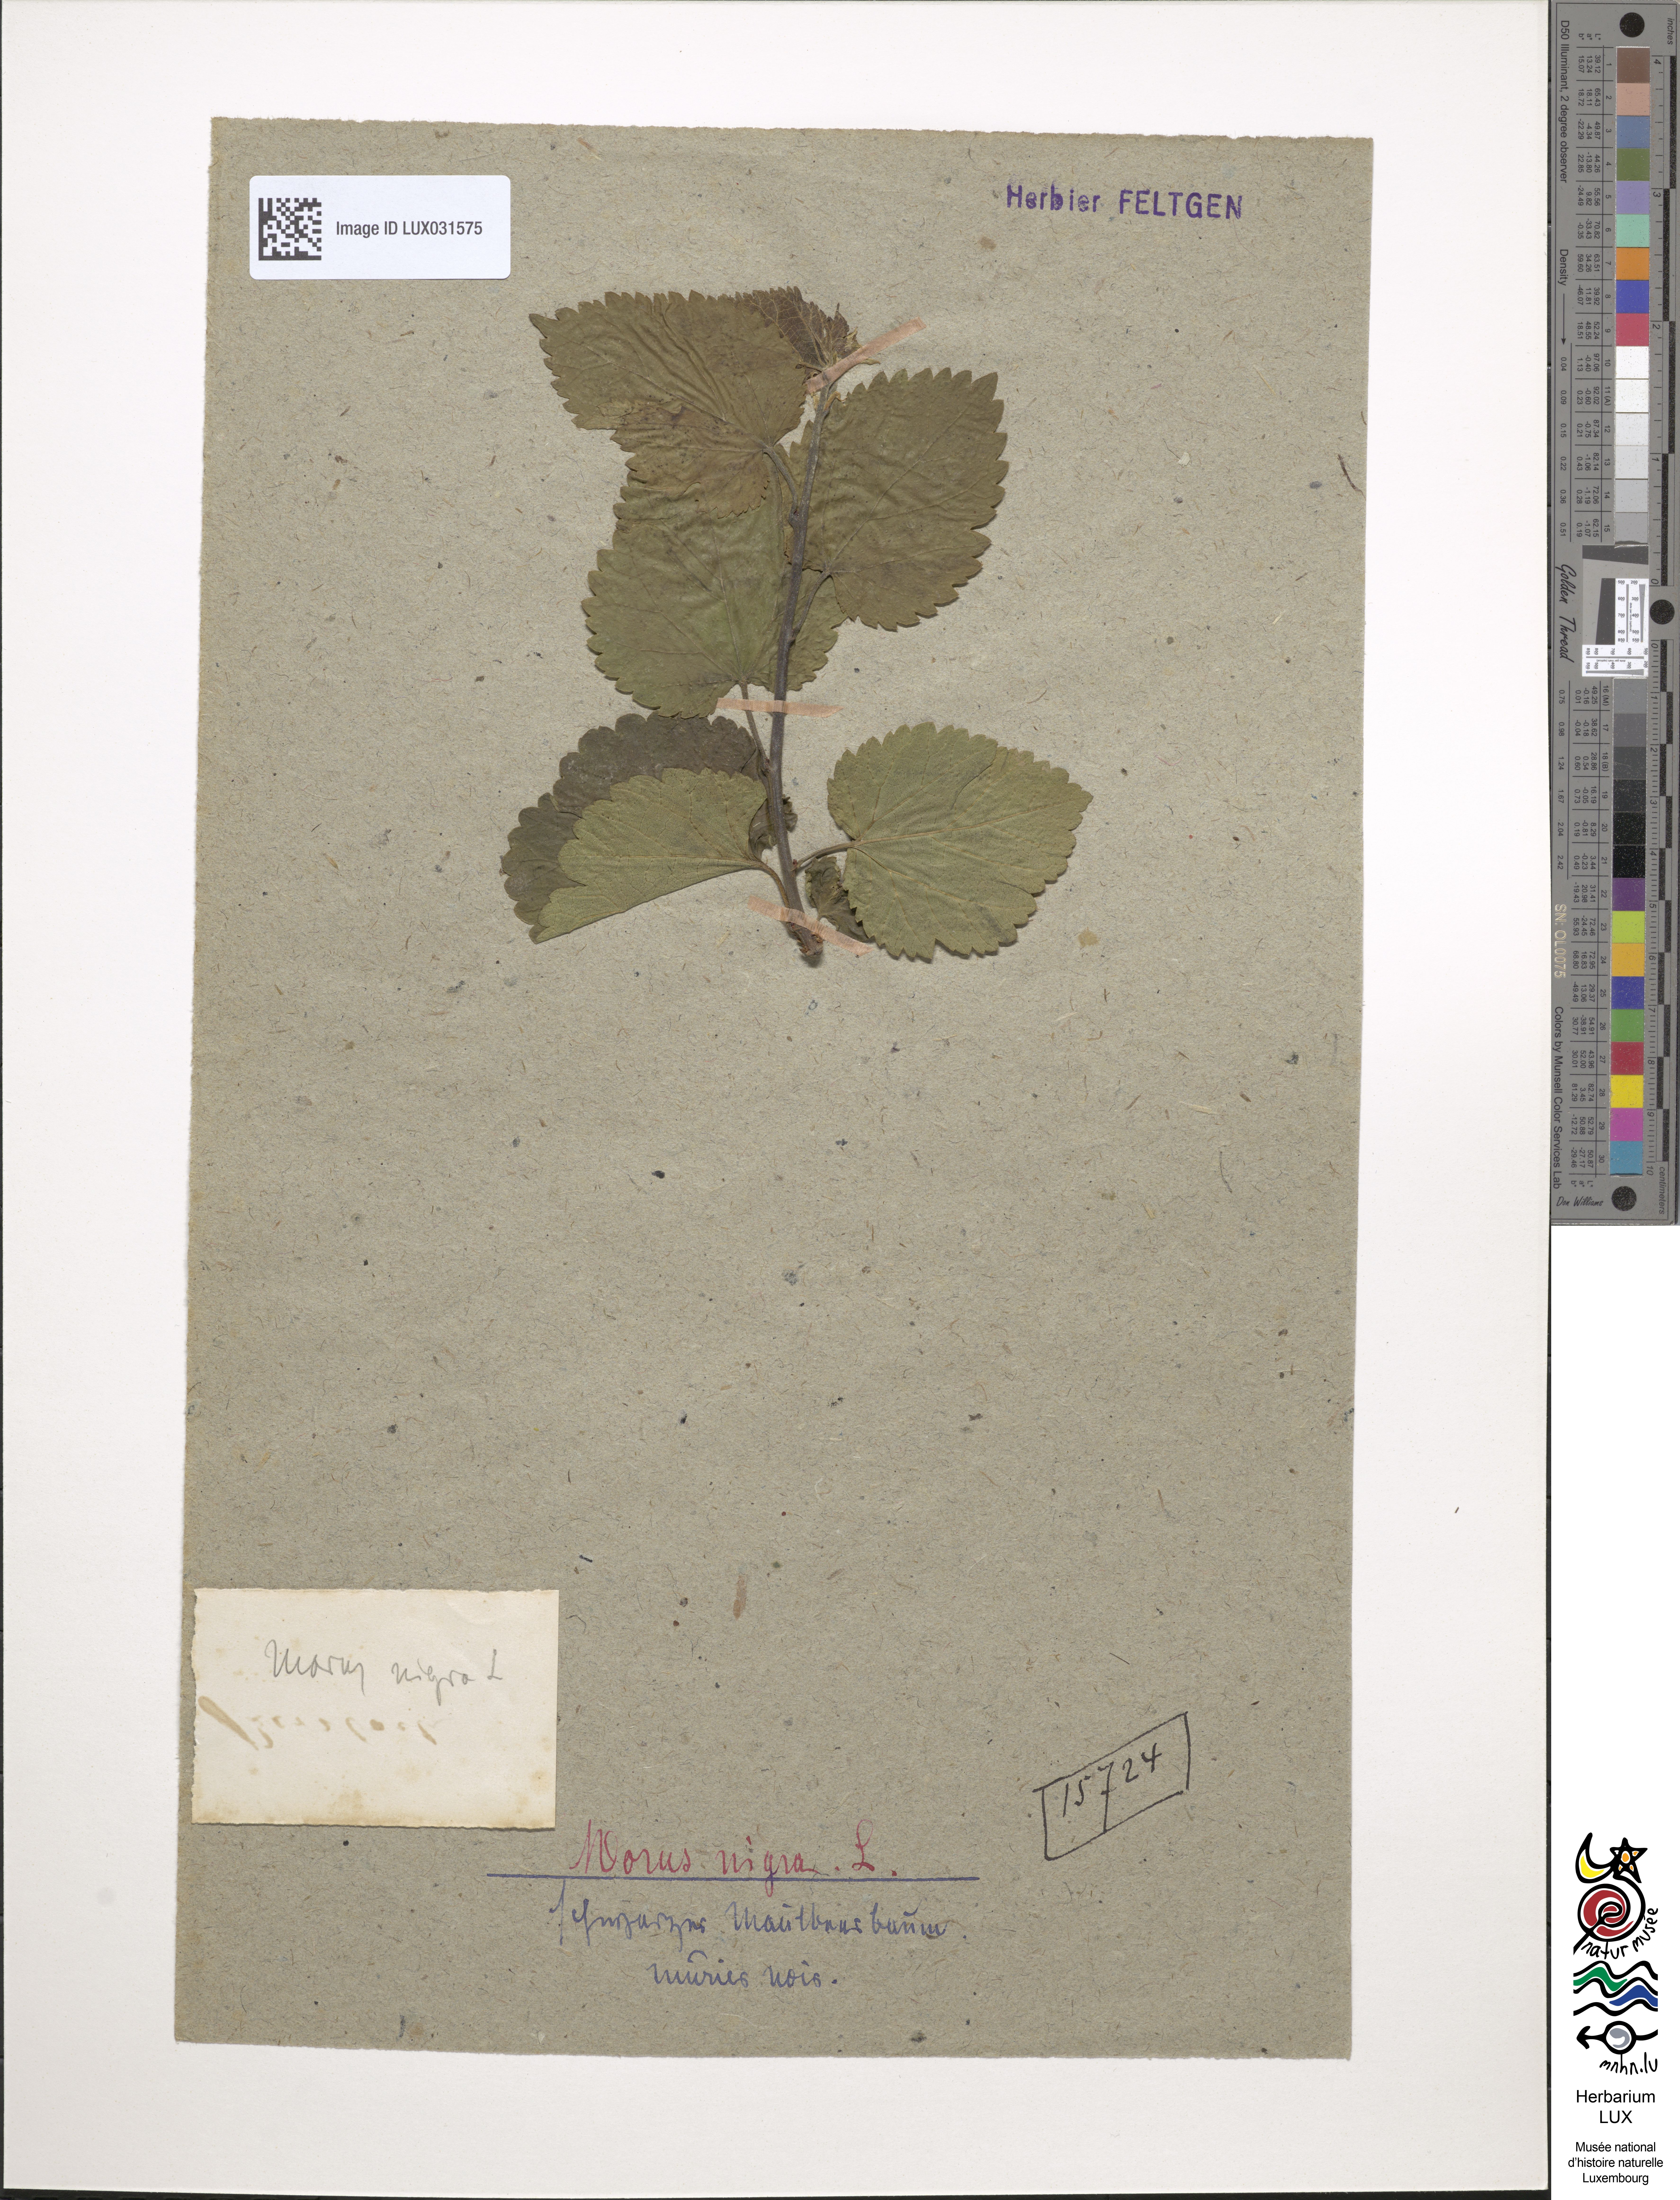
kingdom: Plantae
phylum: Tracheophyta
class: Magnoliopsida
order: Rosales
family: Moraceae
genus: Morus
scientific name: Morus nigra
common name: Black mulberry
